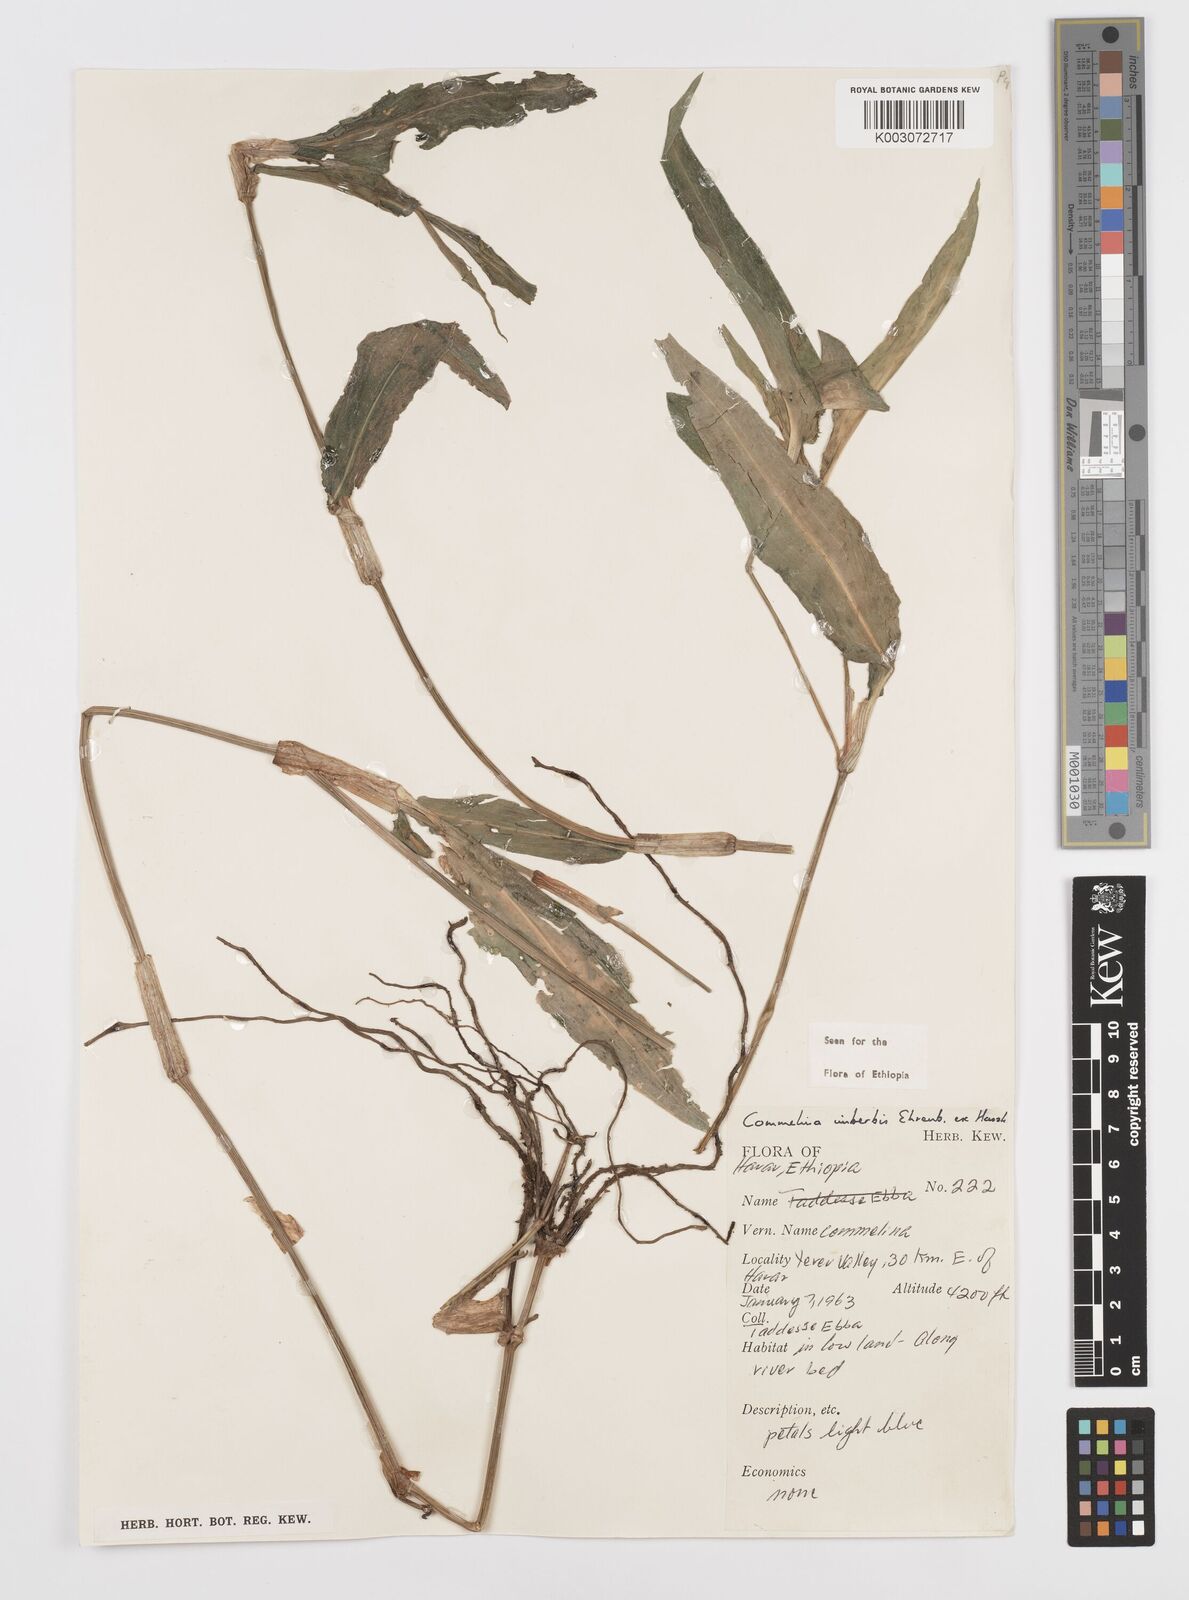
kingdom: Plantae
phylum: Tracheophyta
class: Liliopsida
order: Commelinales
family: Commelinaceae
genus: Commelina
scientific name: Commelina imberbis
